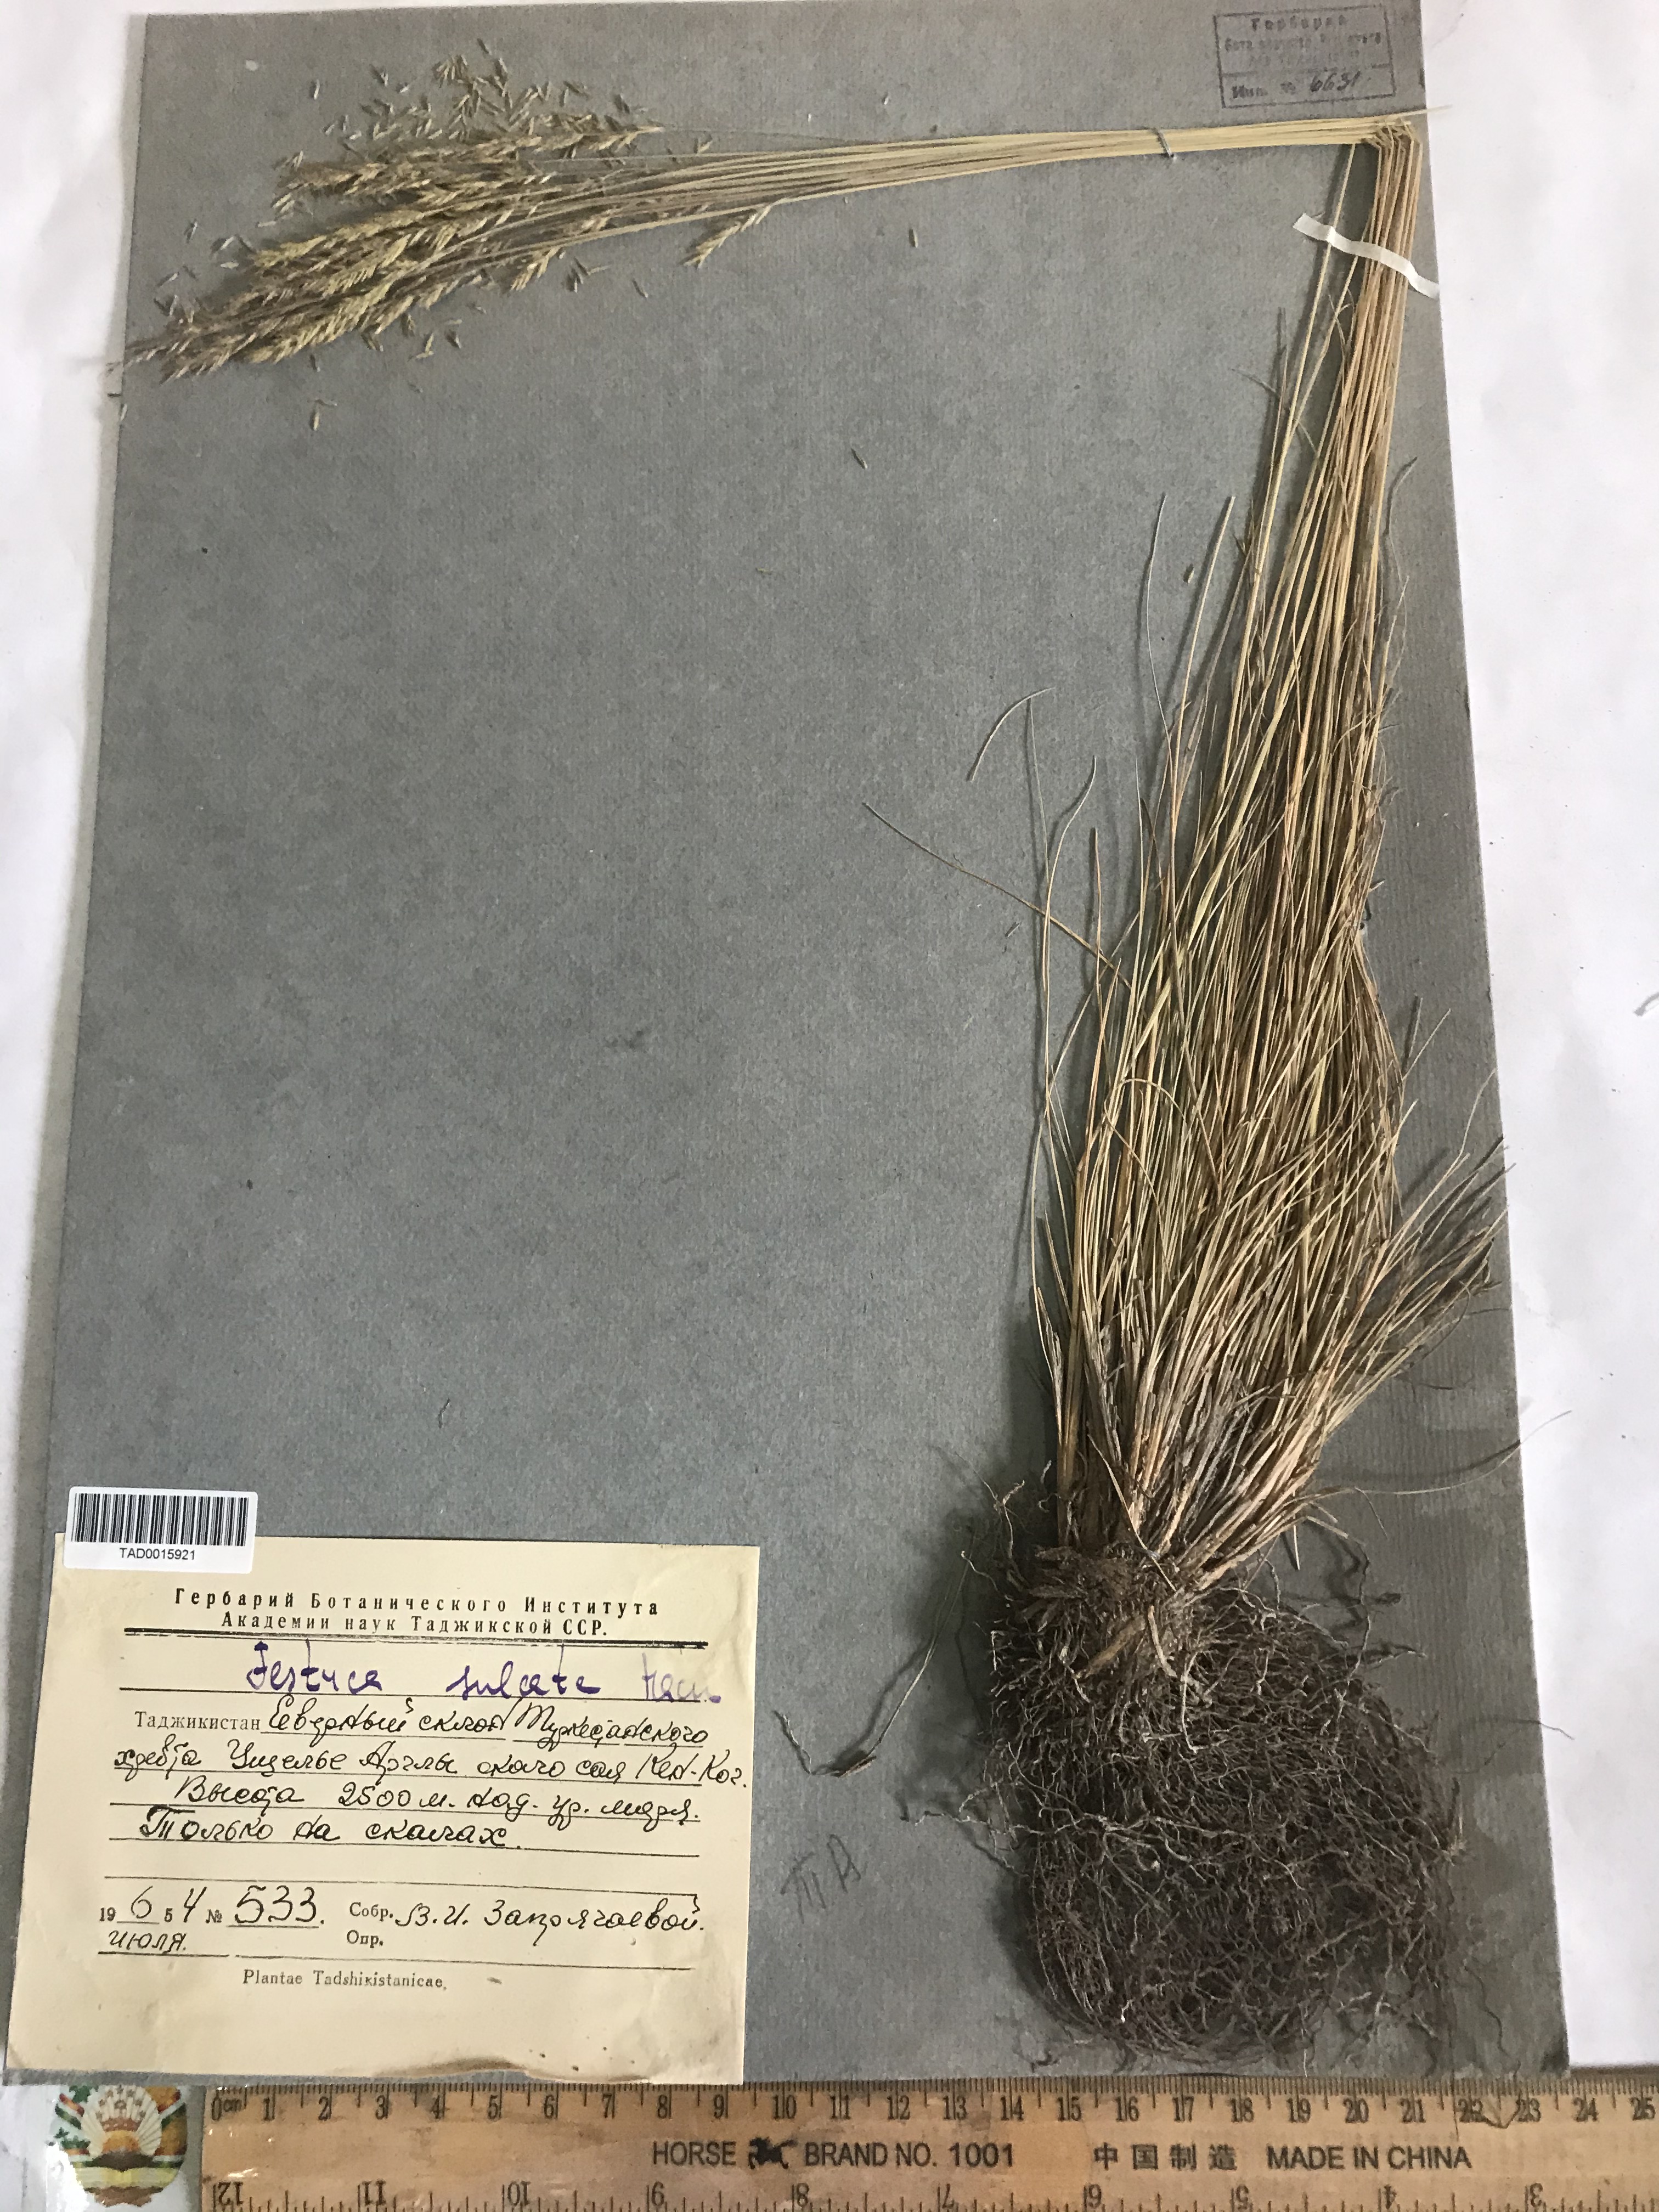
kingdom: Plantae
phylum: Tracheophyta
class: Liliopsida
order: Poales
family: Poaceae
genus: Festuca
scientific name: Festuca sulcata
